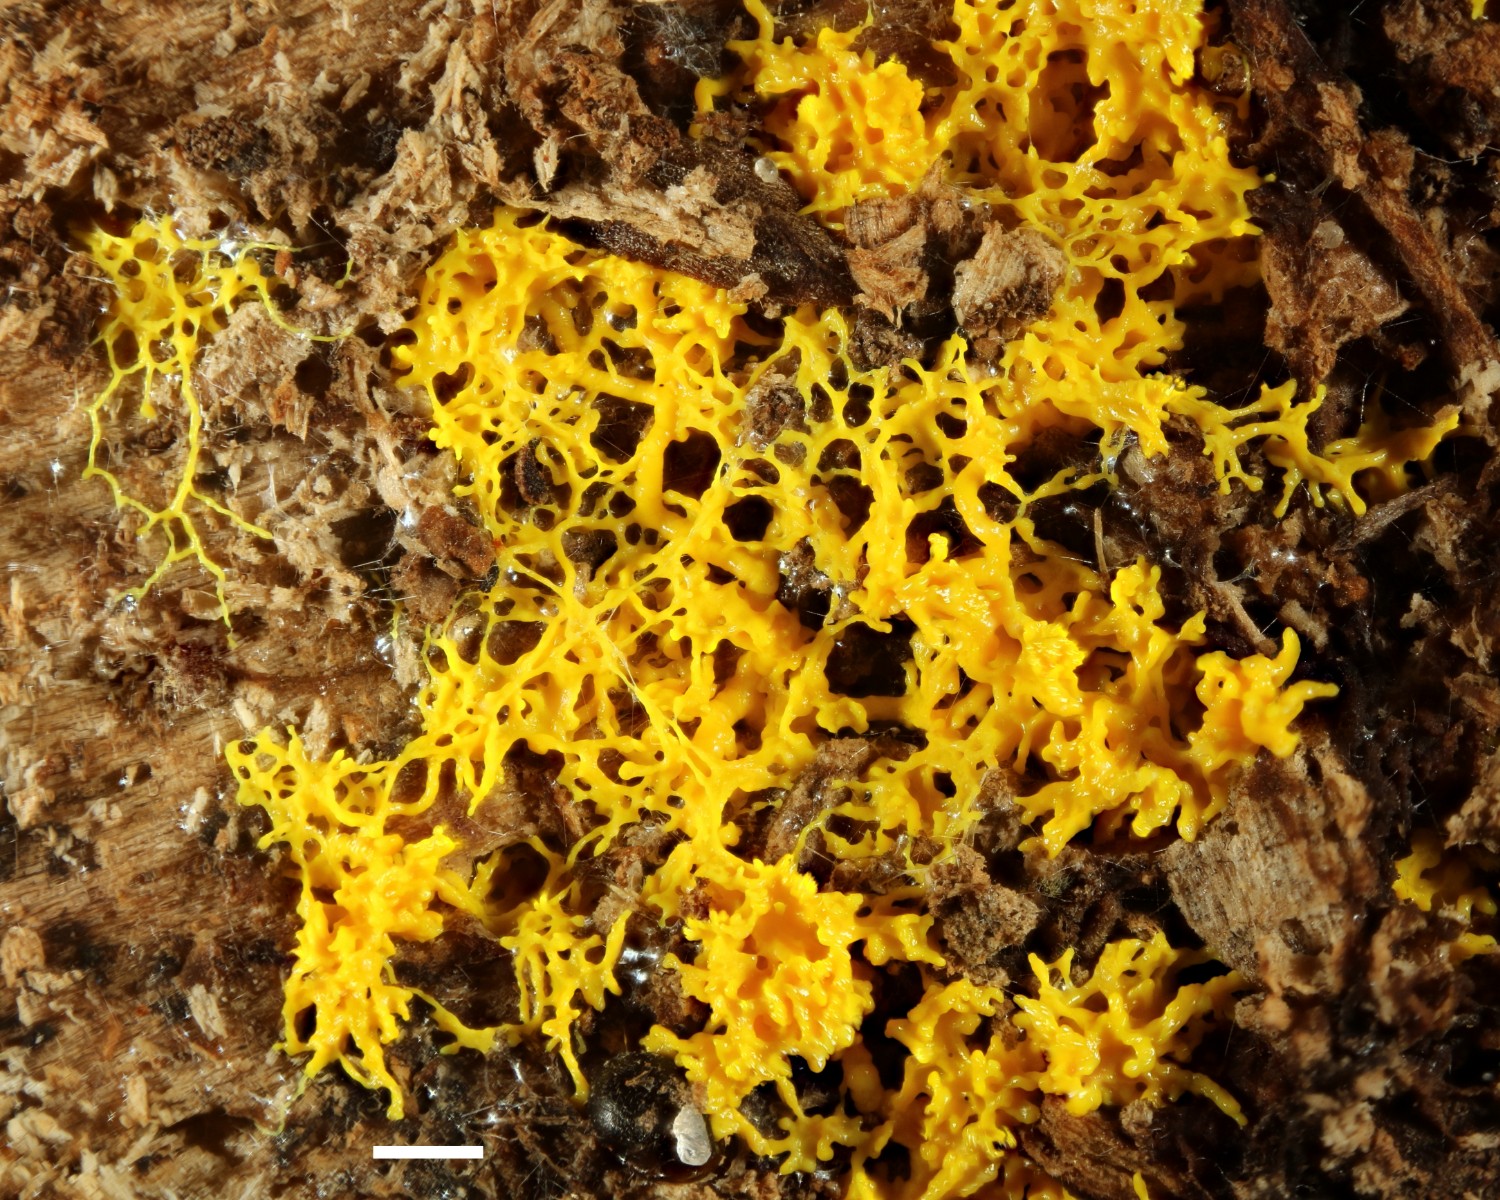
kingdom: Protozoa
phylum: Mycetozoa
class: Myxomycetes
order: Physarales
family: Physaraceae
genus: Fuligo
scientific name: Fuligo septica
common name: gul troldsmør
